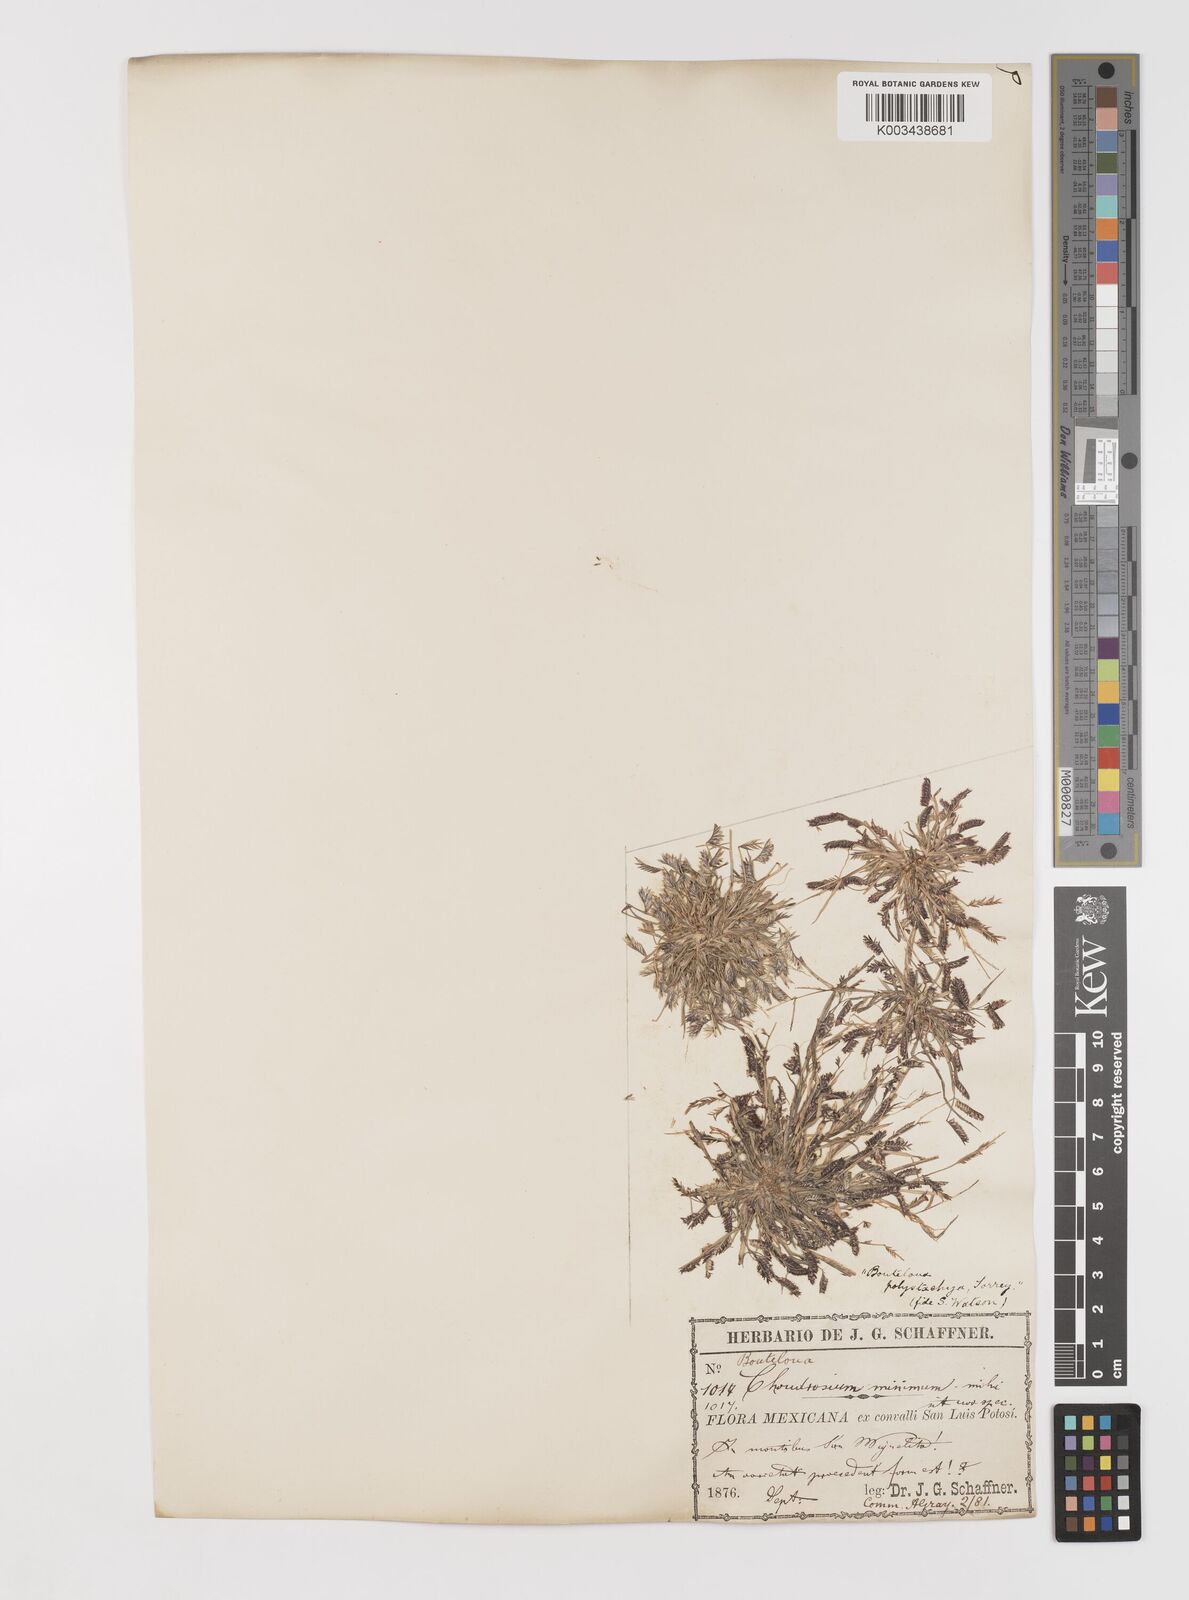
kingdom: Plantae
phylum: Tracheophyta
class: Liliopsida
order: Poales
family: Poaceae
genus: Bouteloua
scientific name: Bouteloua
